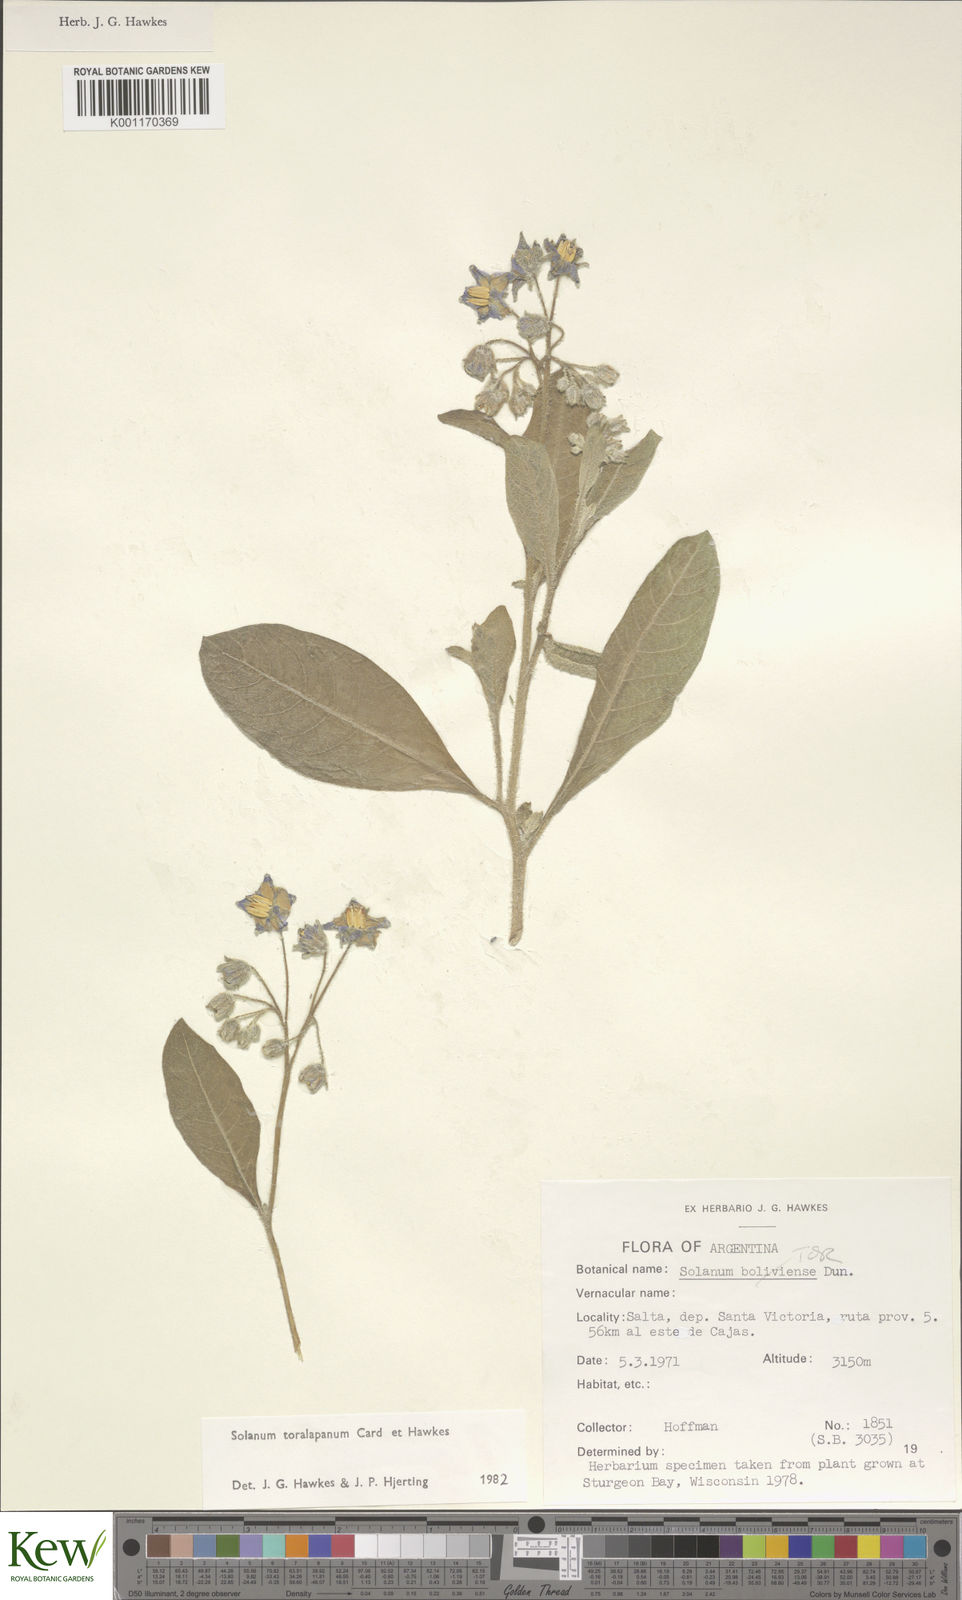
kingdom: Plantae
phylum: Tracheophyta
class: Magnoliopsida
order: Solanales
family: Solanaceae
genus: Solanum
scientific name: Solanum
